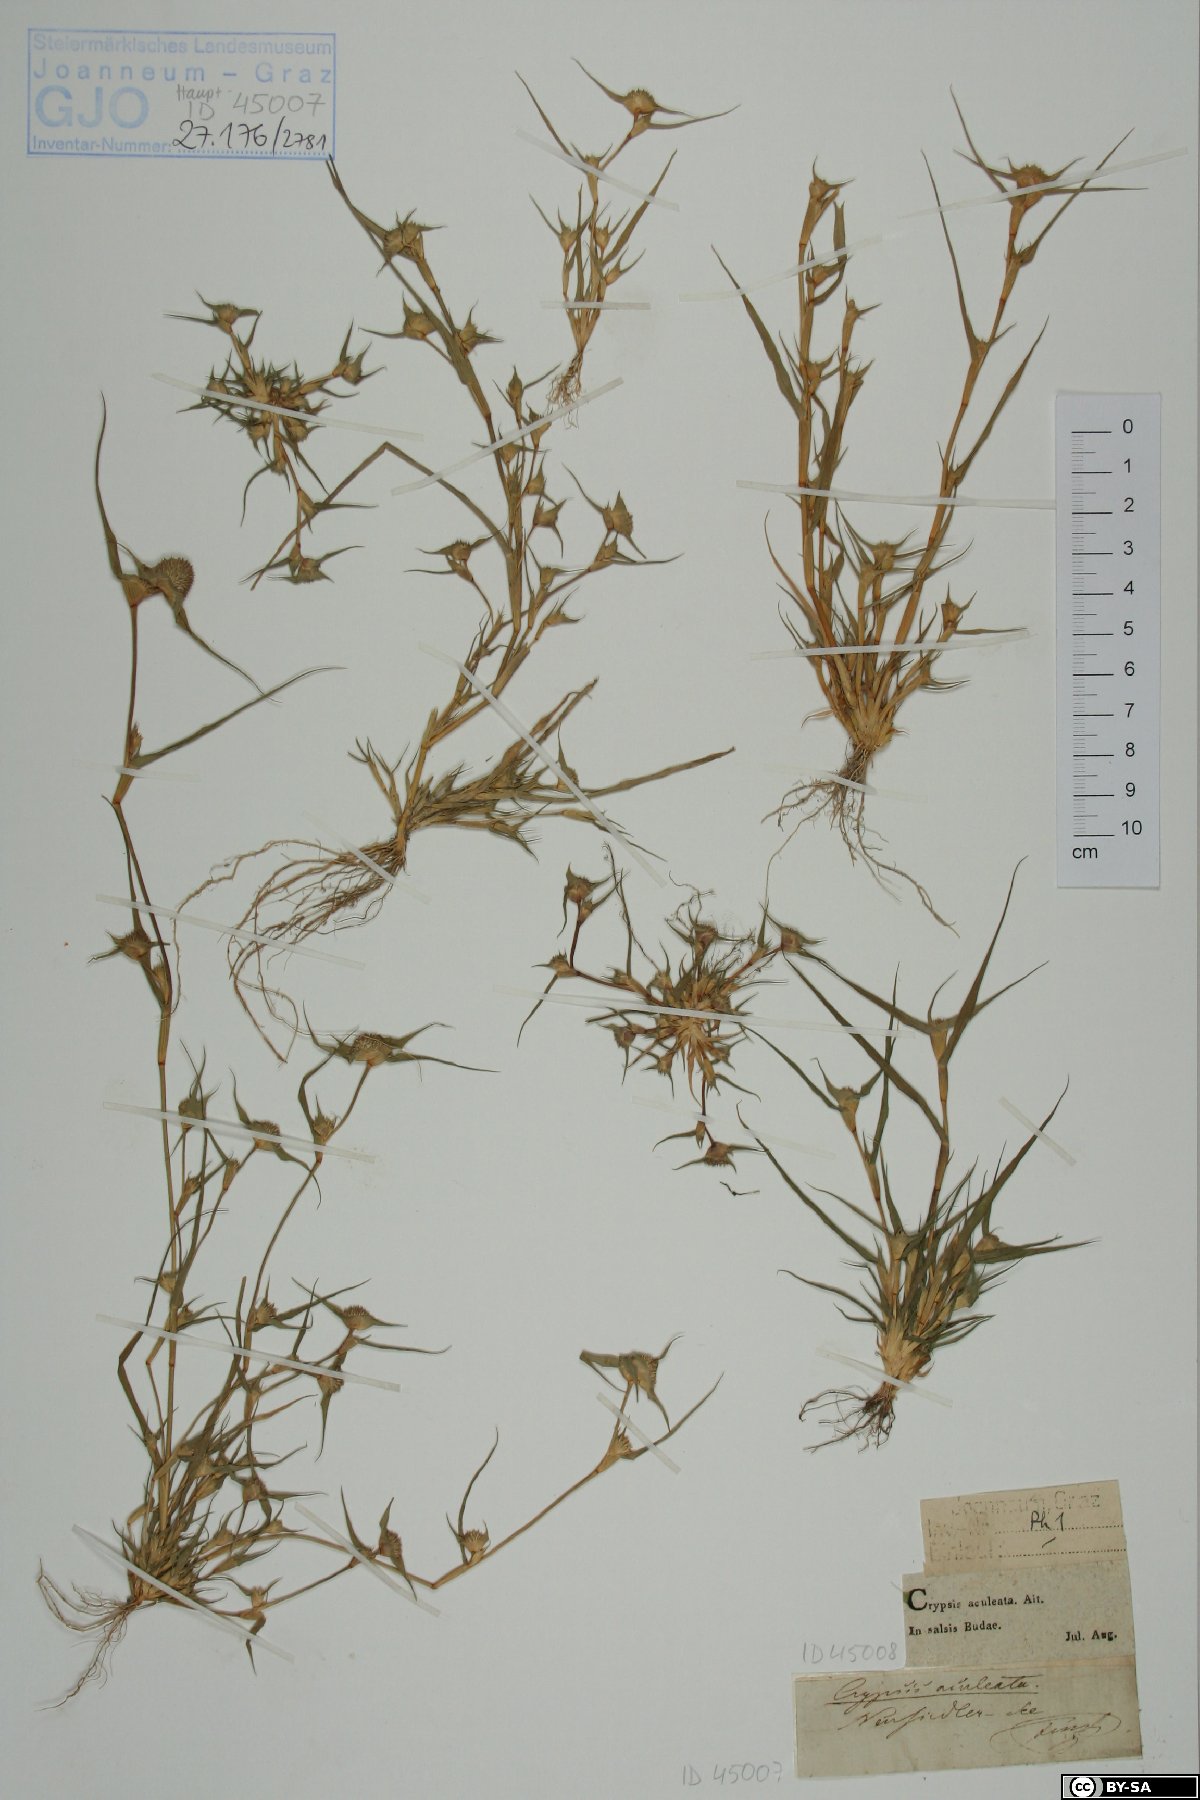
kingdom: Plantae
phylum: Tracheophyta
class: Liliopsida
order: Poales
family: Poaceae
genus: Sporobolus
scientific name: Sporobolus aculeatus
